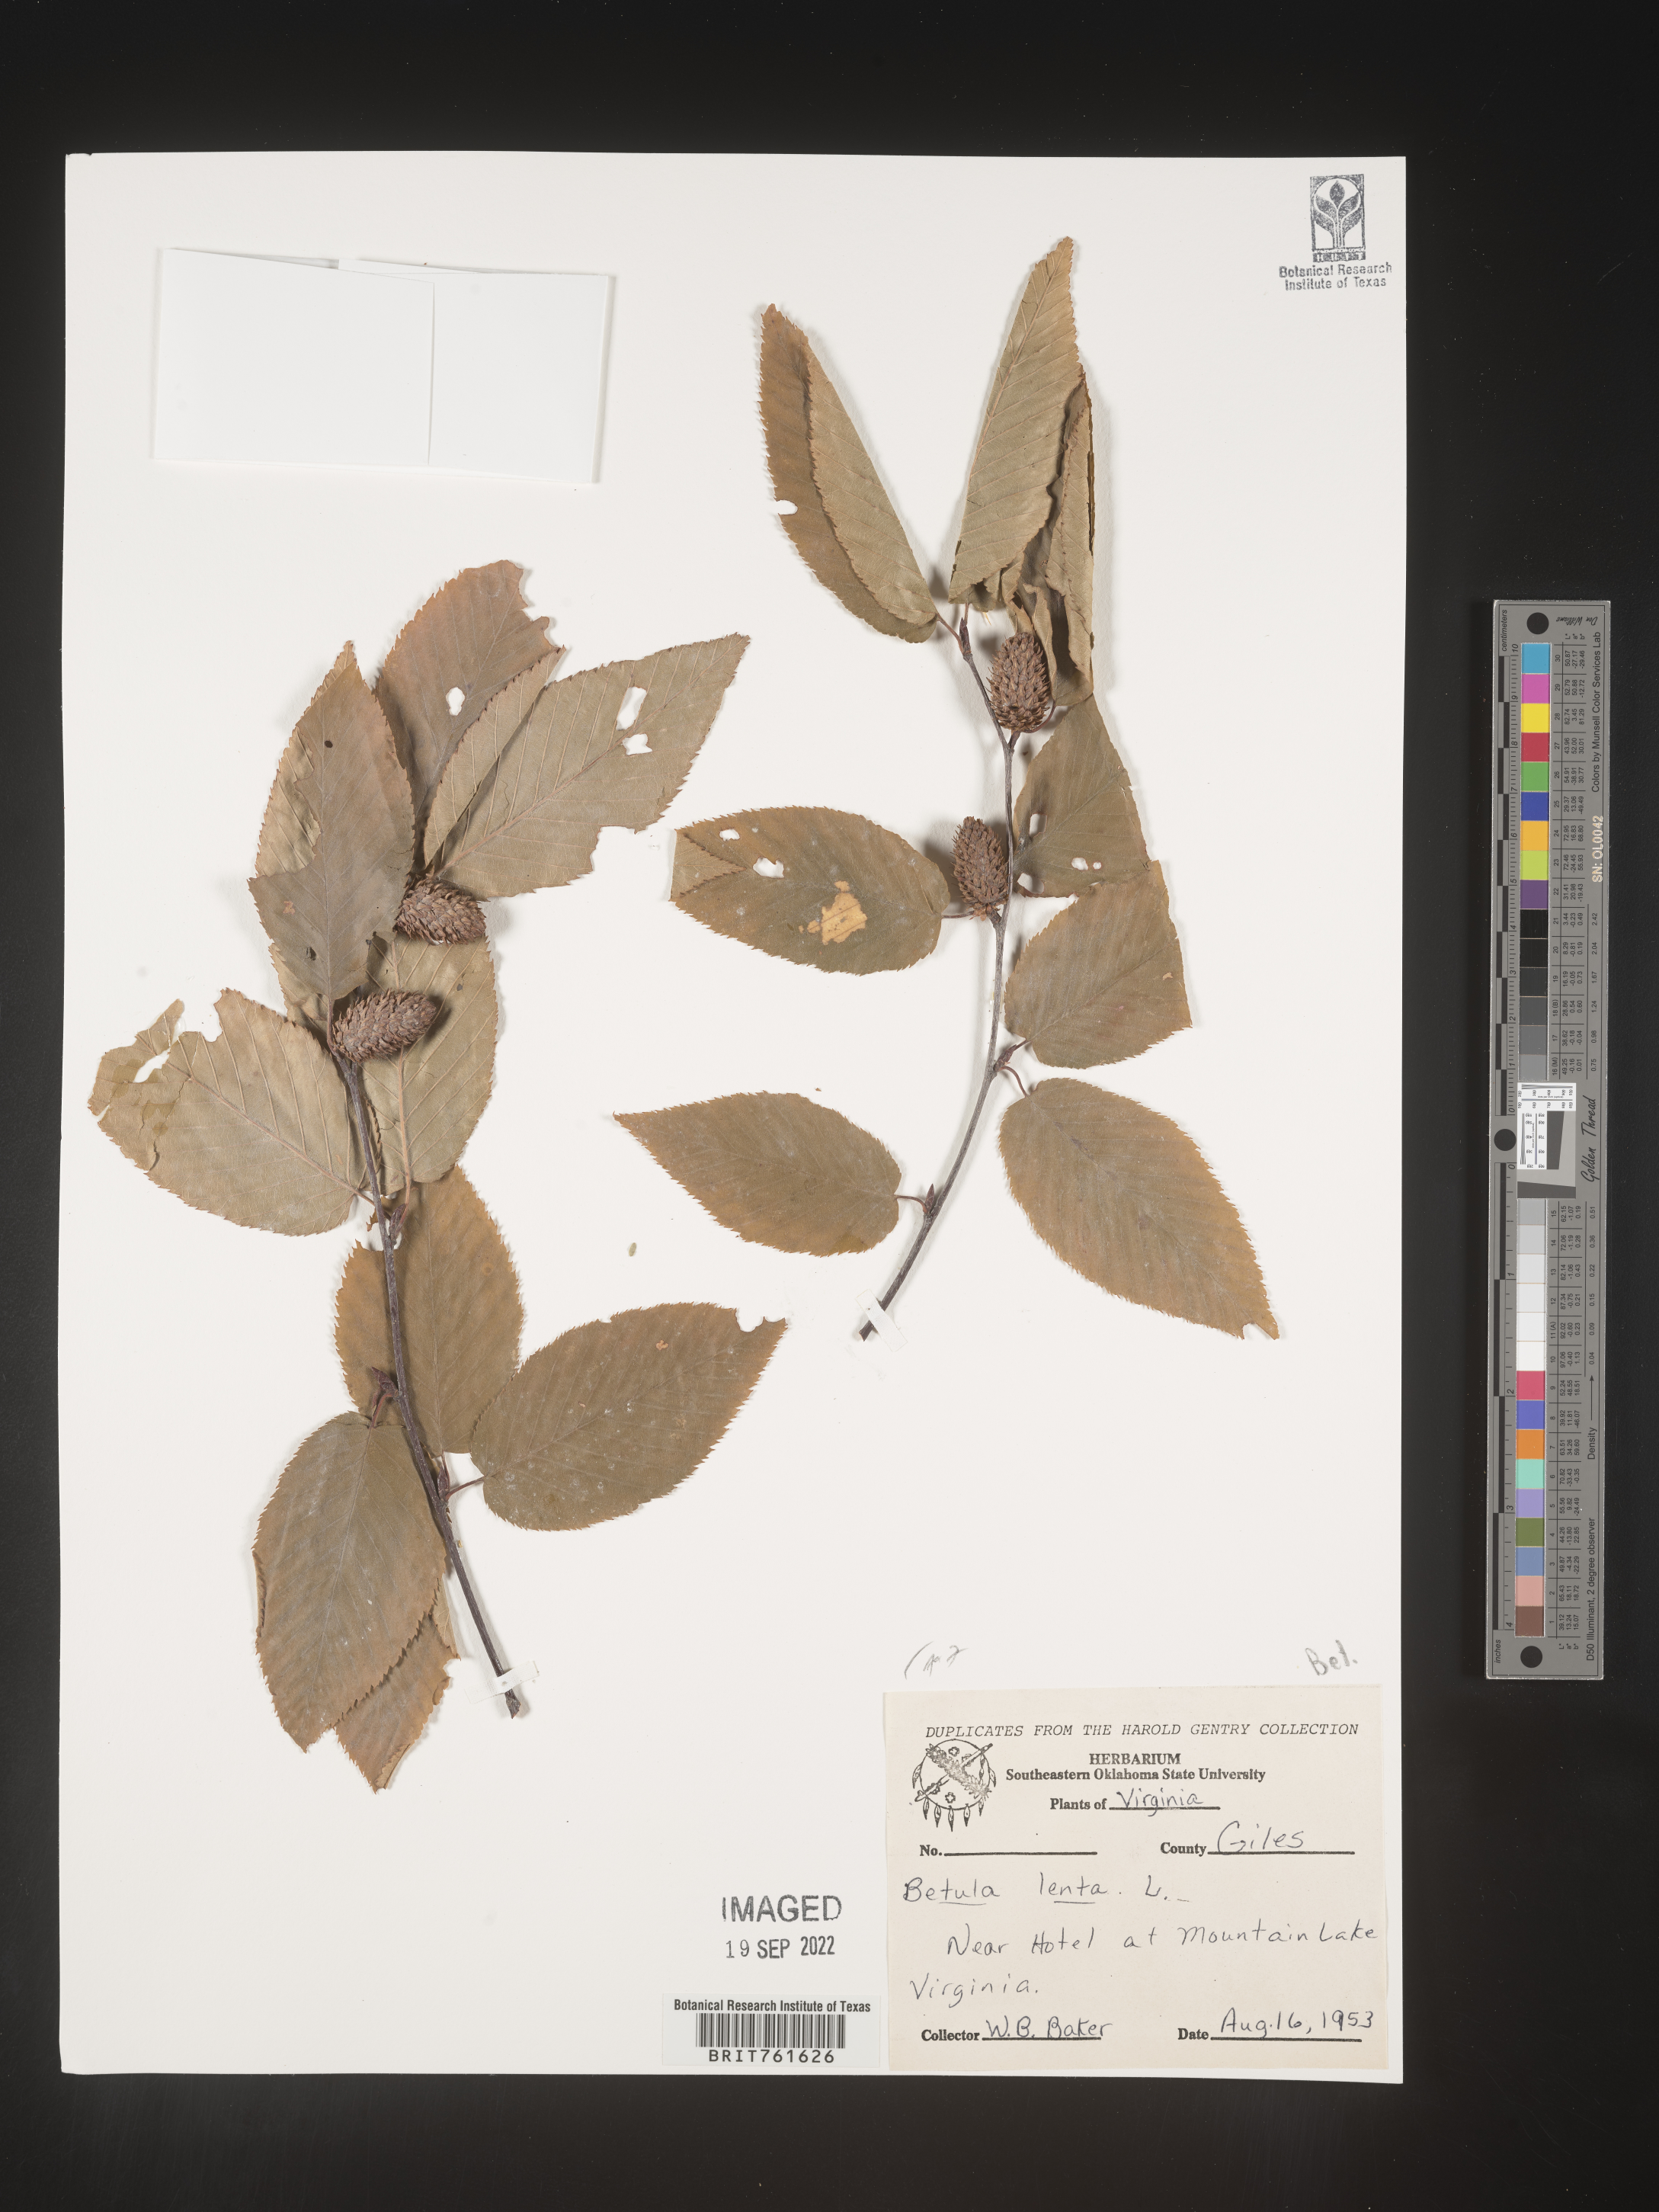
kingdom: Plantae
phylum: Tracheophyta
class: Magnoliopsida
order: Fagales
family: Betulaceae
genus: Betula
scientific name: Betula lenta
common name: Black birch
